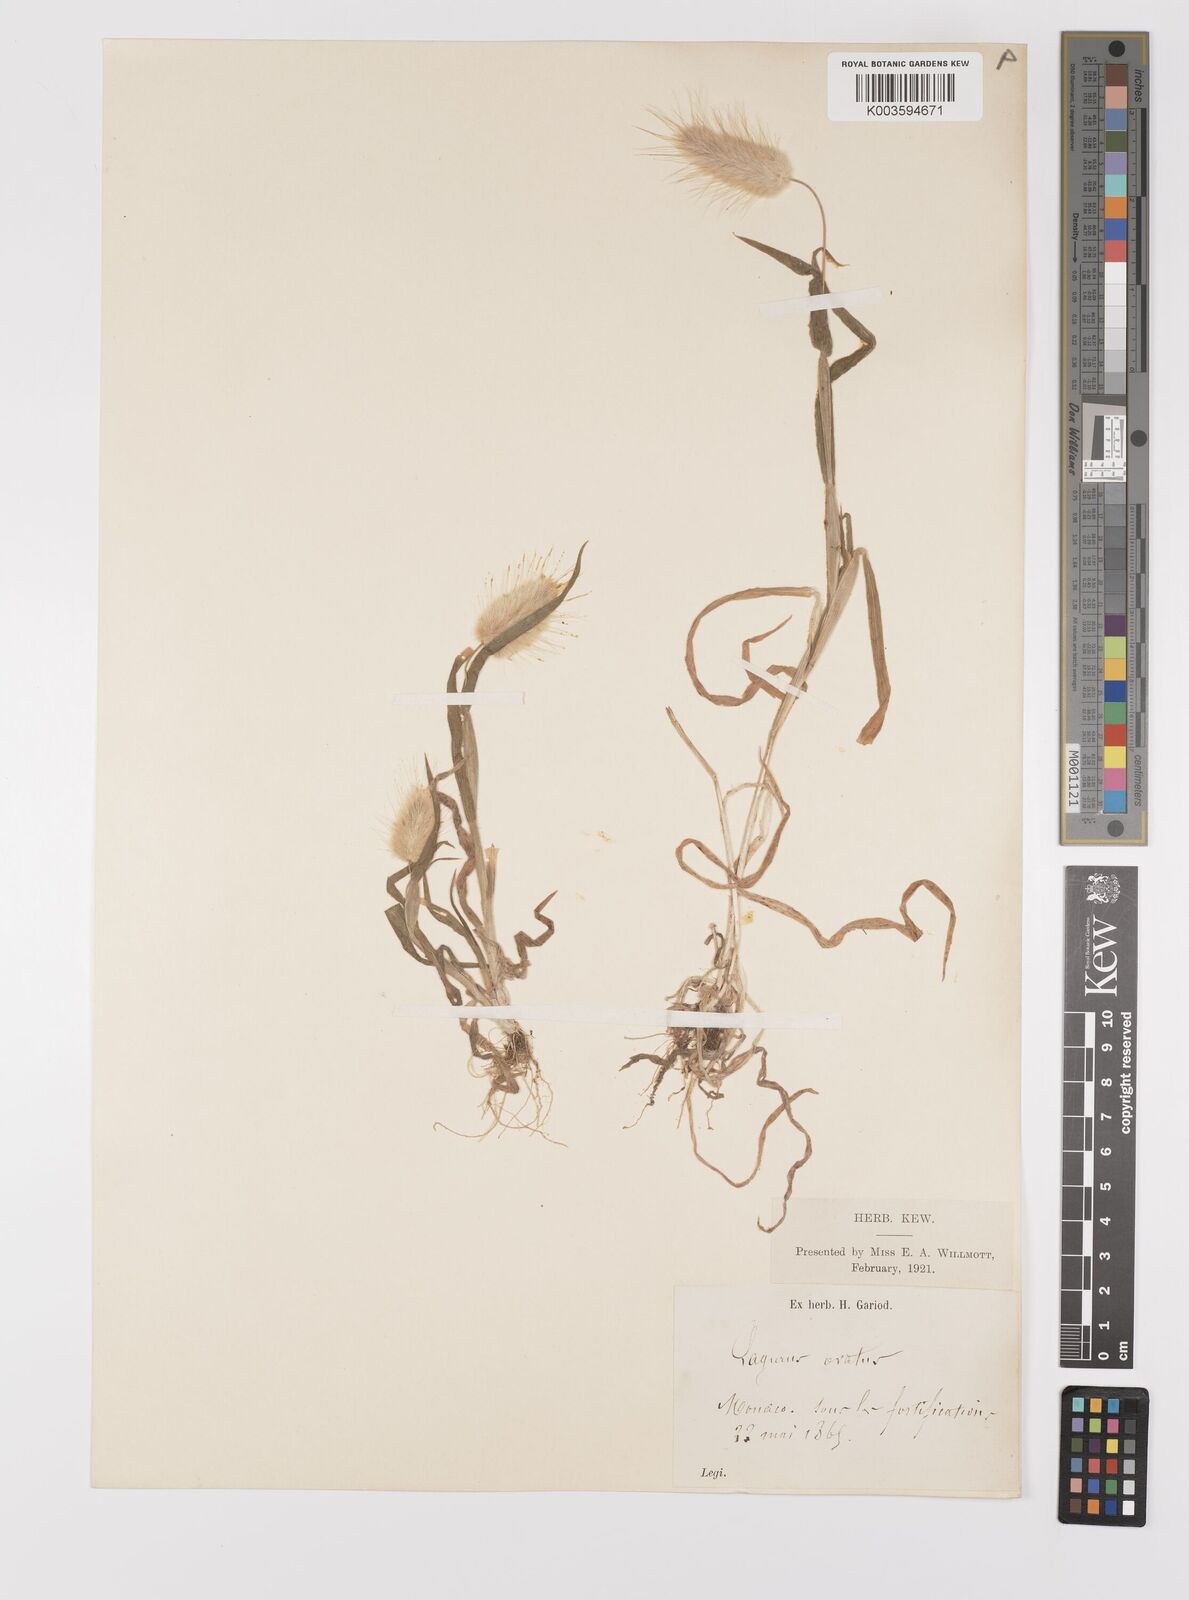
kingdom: Plantae
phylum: Tracheophyta
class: Liliopsida
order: Poales
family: Poaceae
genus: Lagurus
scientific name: Lagurus ovatus
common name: Hare's-tail
